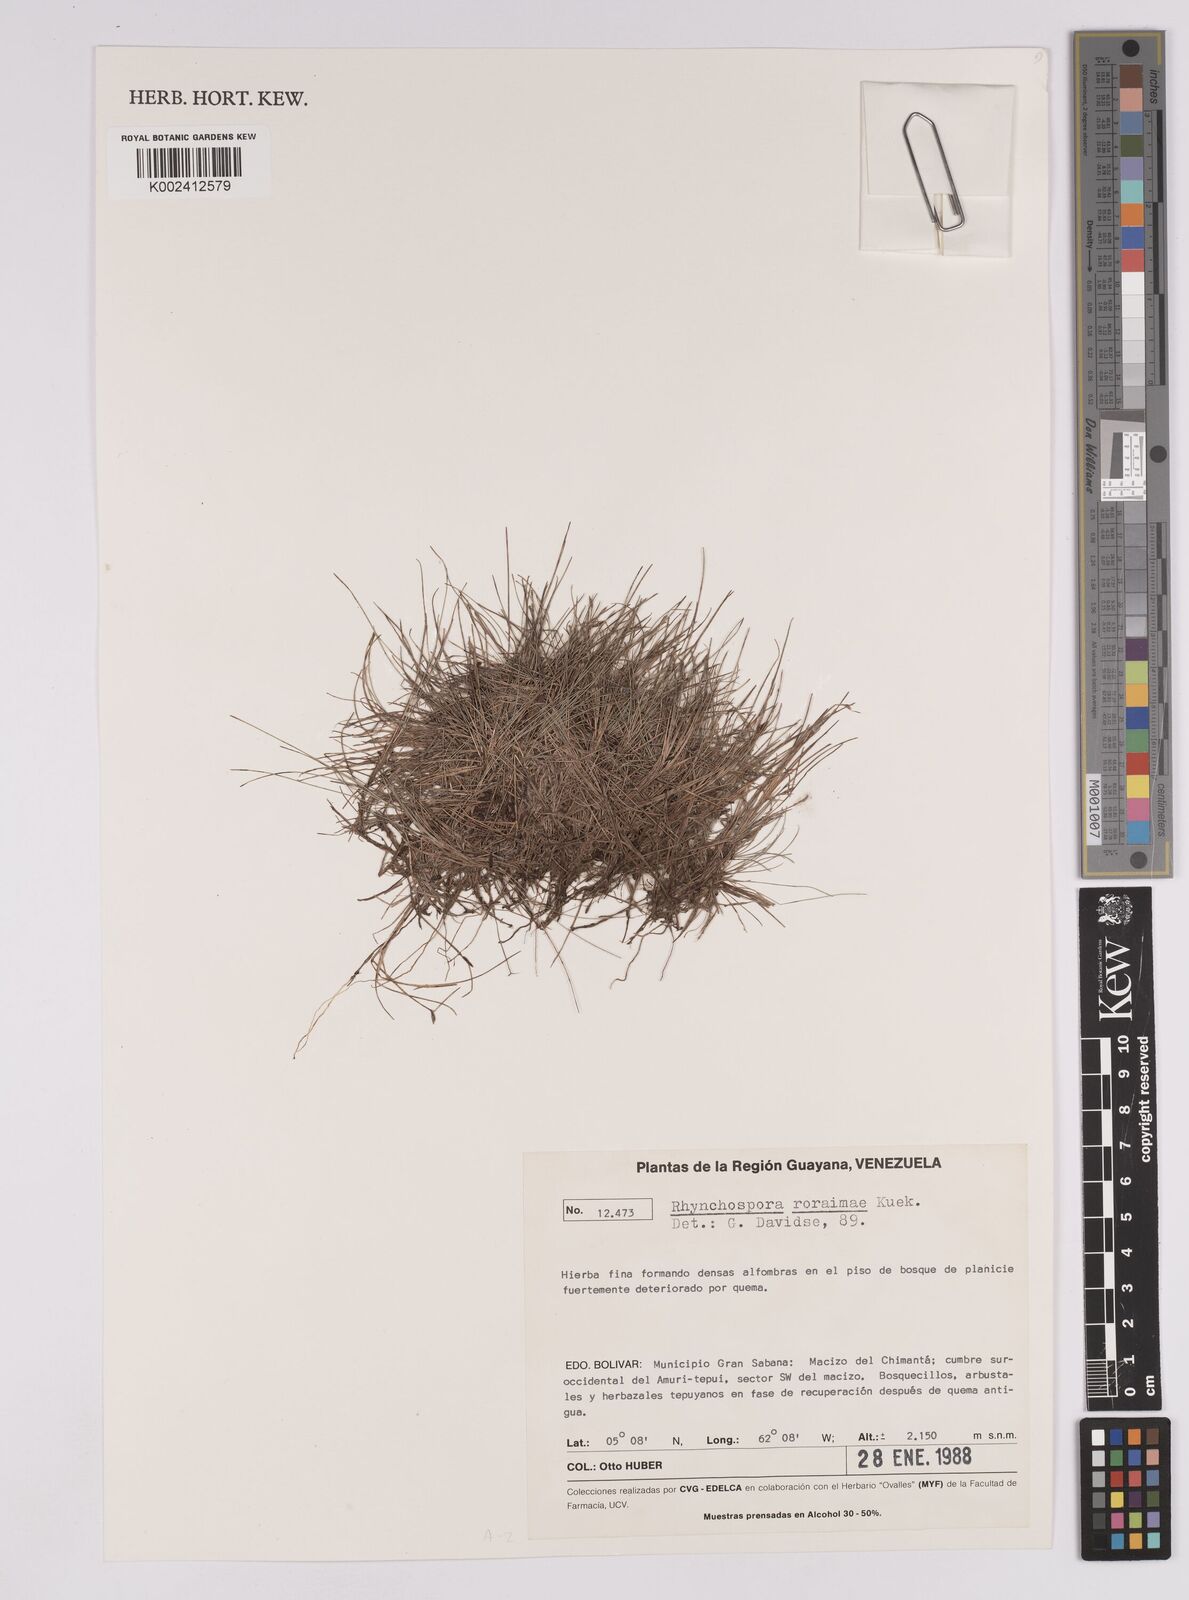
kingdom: Plantae
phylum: Tracheophyta
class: Liliopsida
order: Poales
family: Cyperaceae
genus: Rhynchospora
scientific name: Rhynchospora roraimae
